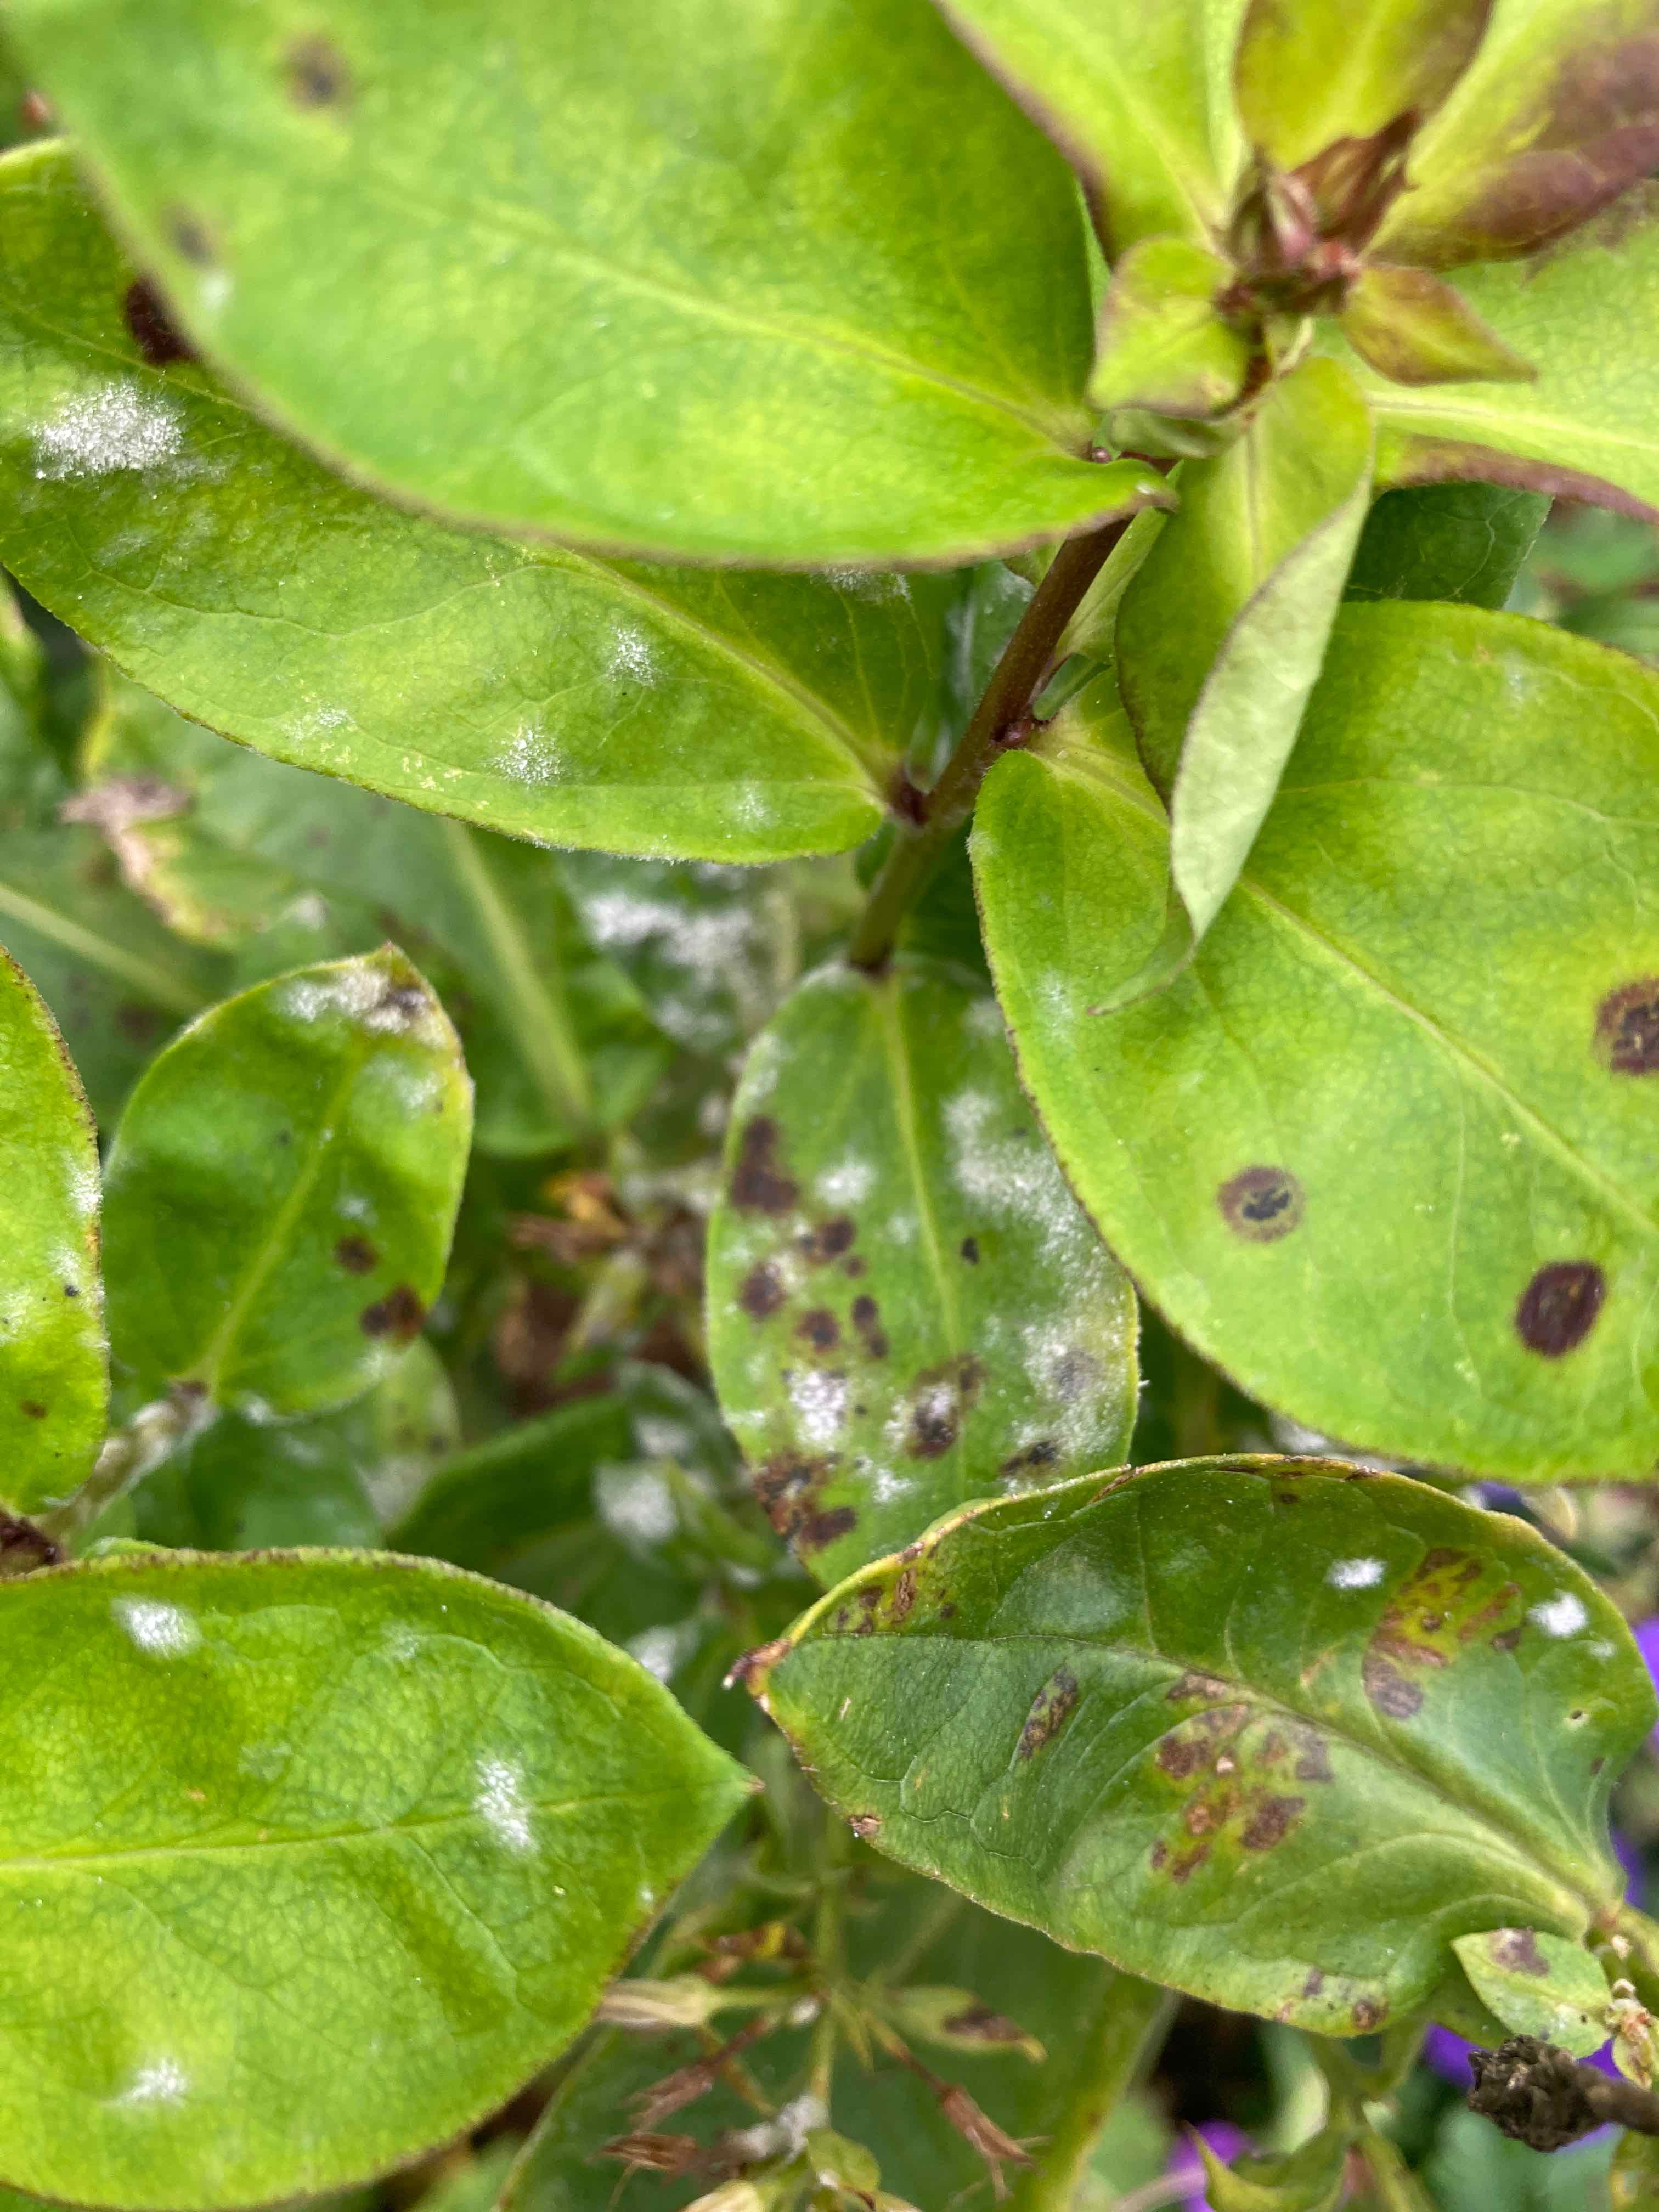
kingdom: Fungi
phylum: Ascomycota
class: Leotiomycetes
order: Helotiales
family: Erysiphaceae
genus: Golovinomyces
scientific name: Golovinomyces magnicellulatus
